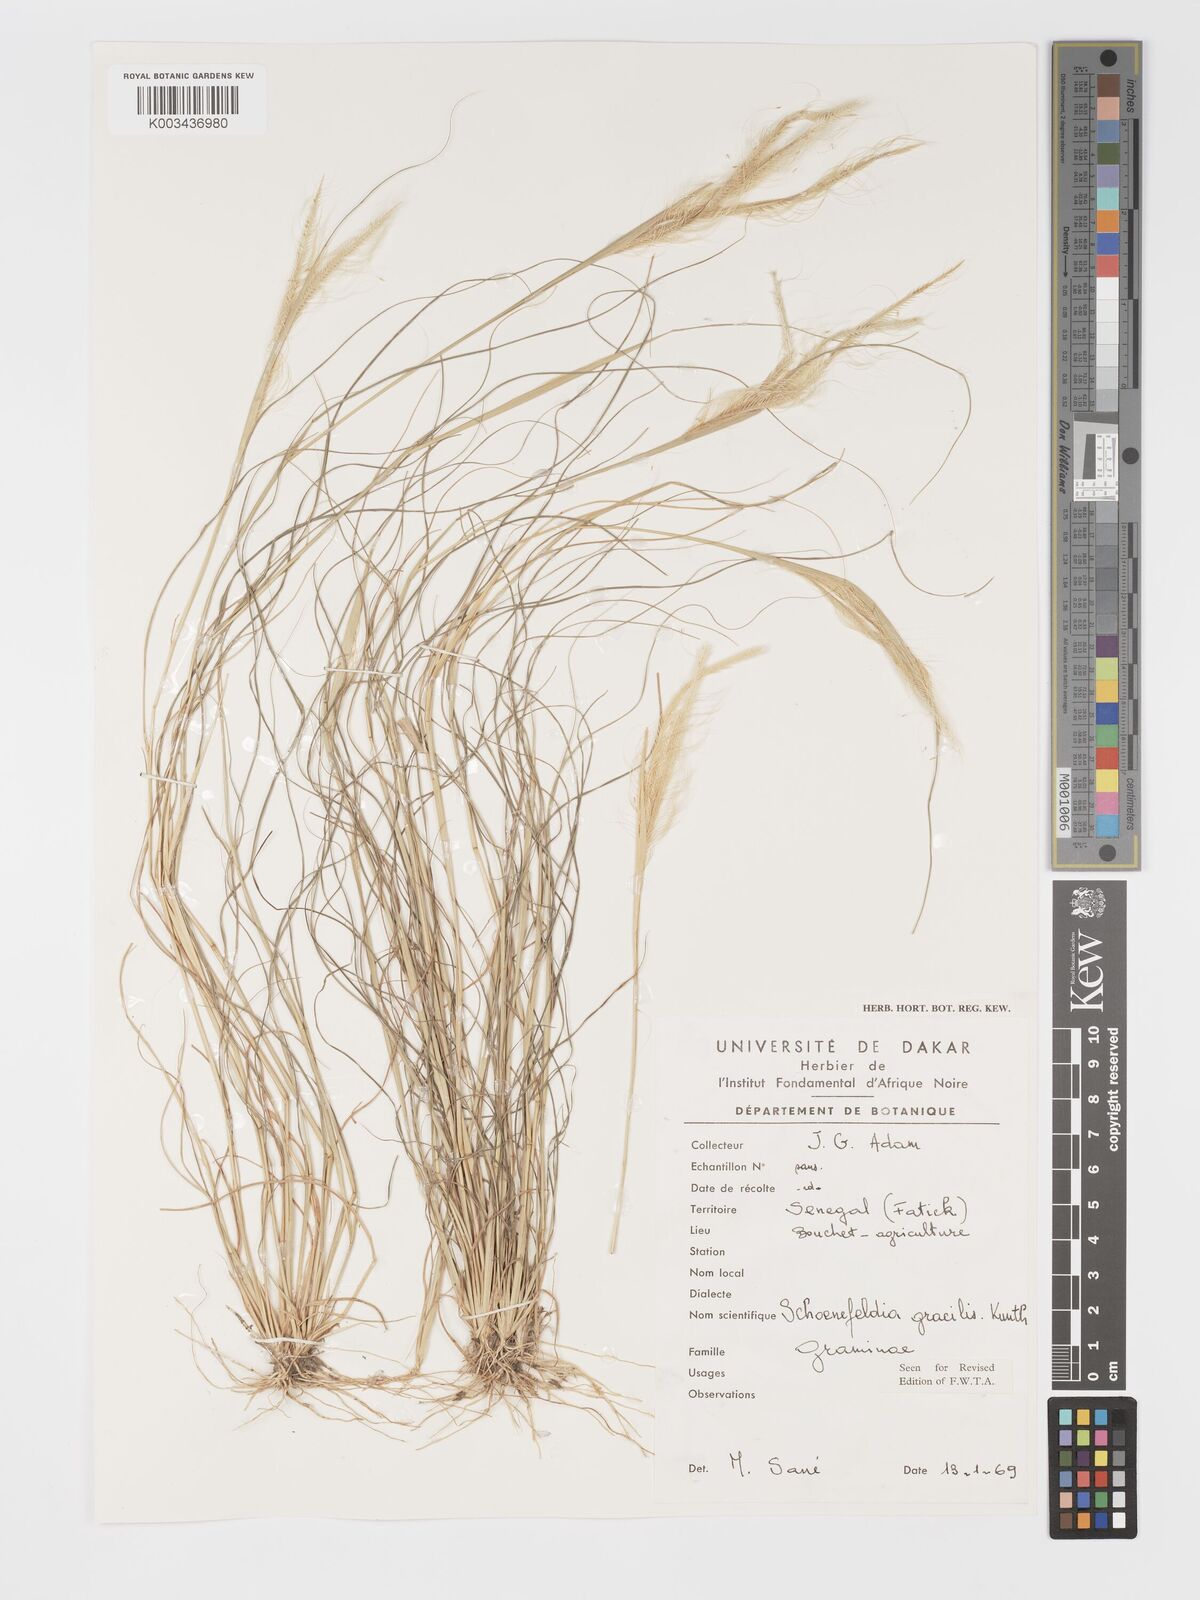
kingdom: Plantae
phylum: Tracheophyta
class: Liliopsida
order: Poales
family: Poaceae
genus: Schoenefeldia
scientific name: Schoenefeldia gracilis
